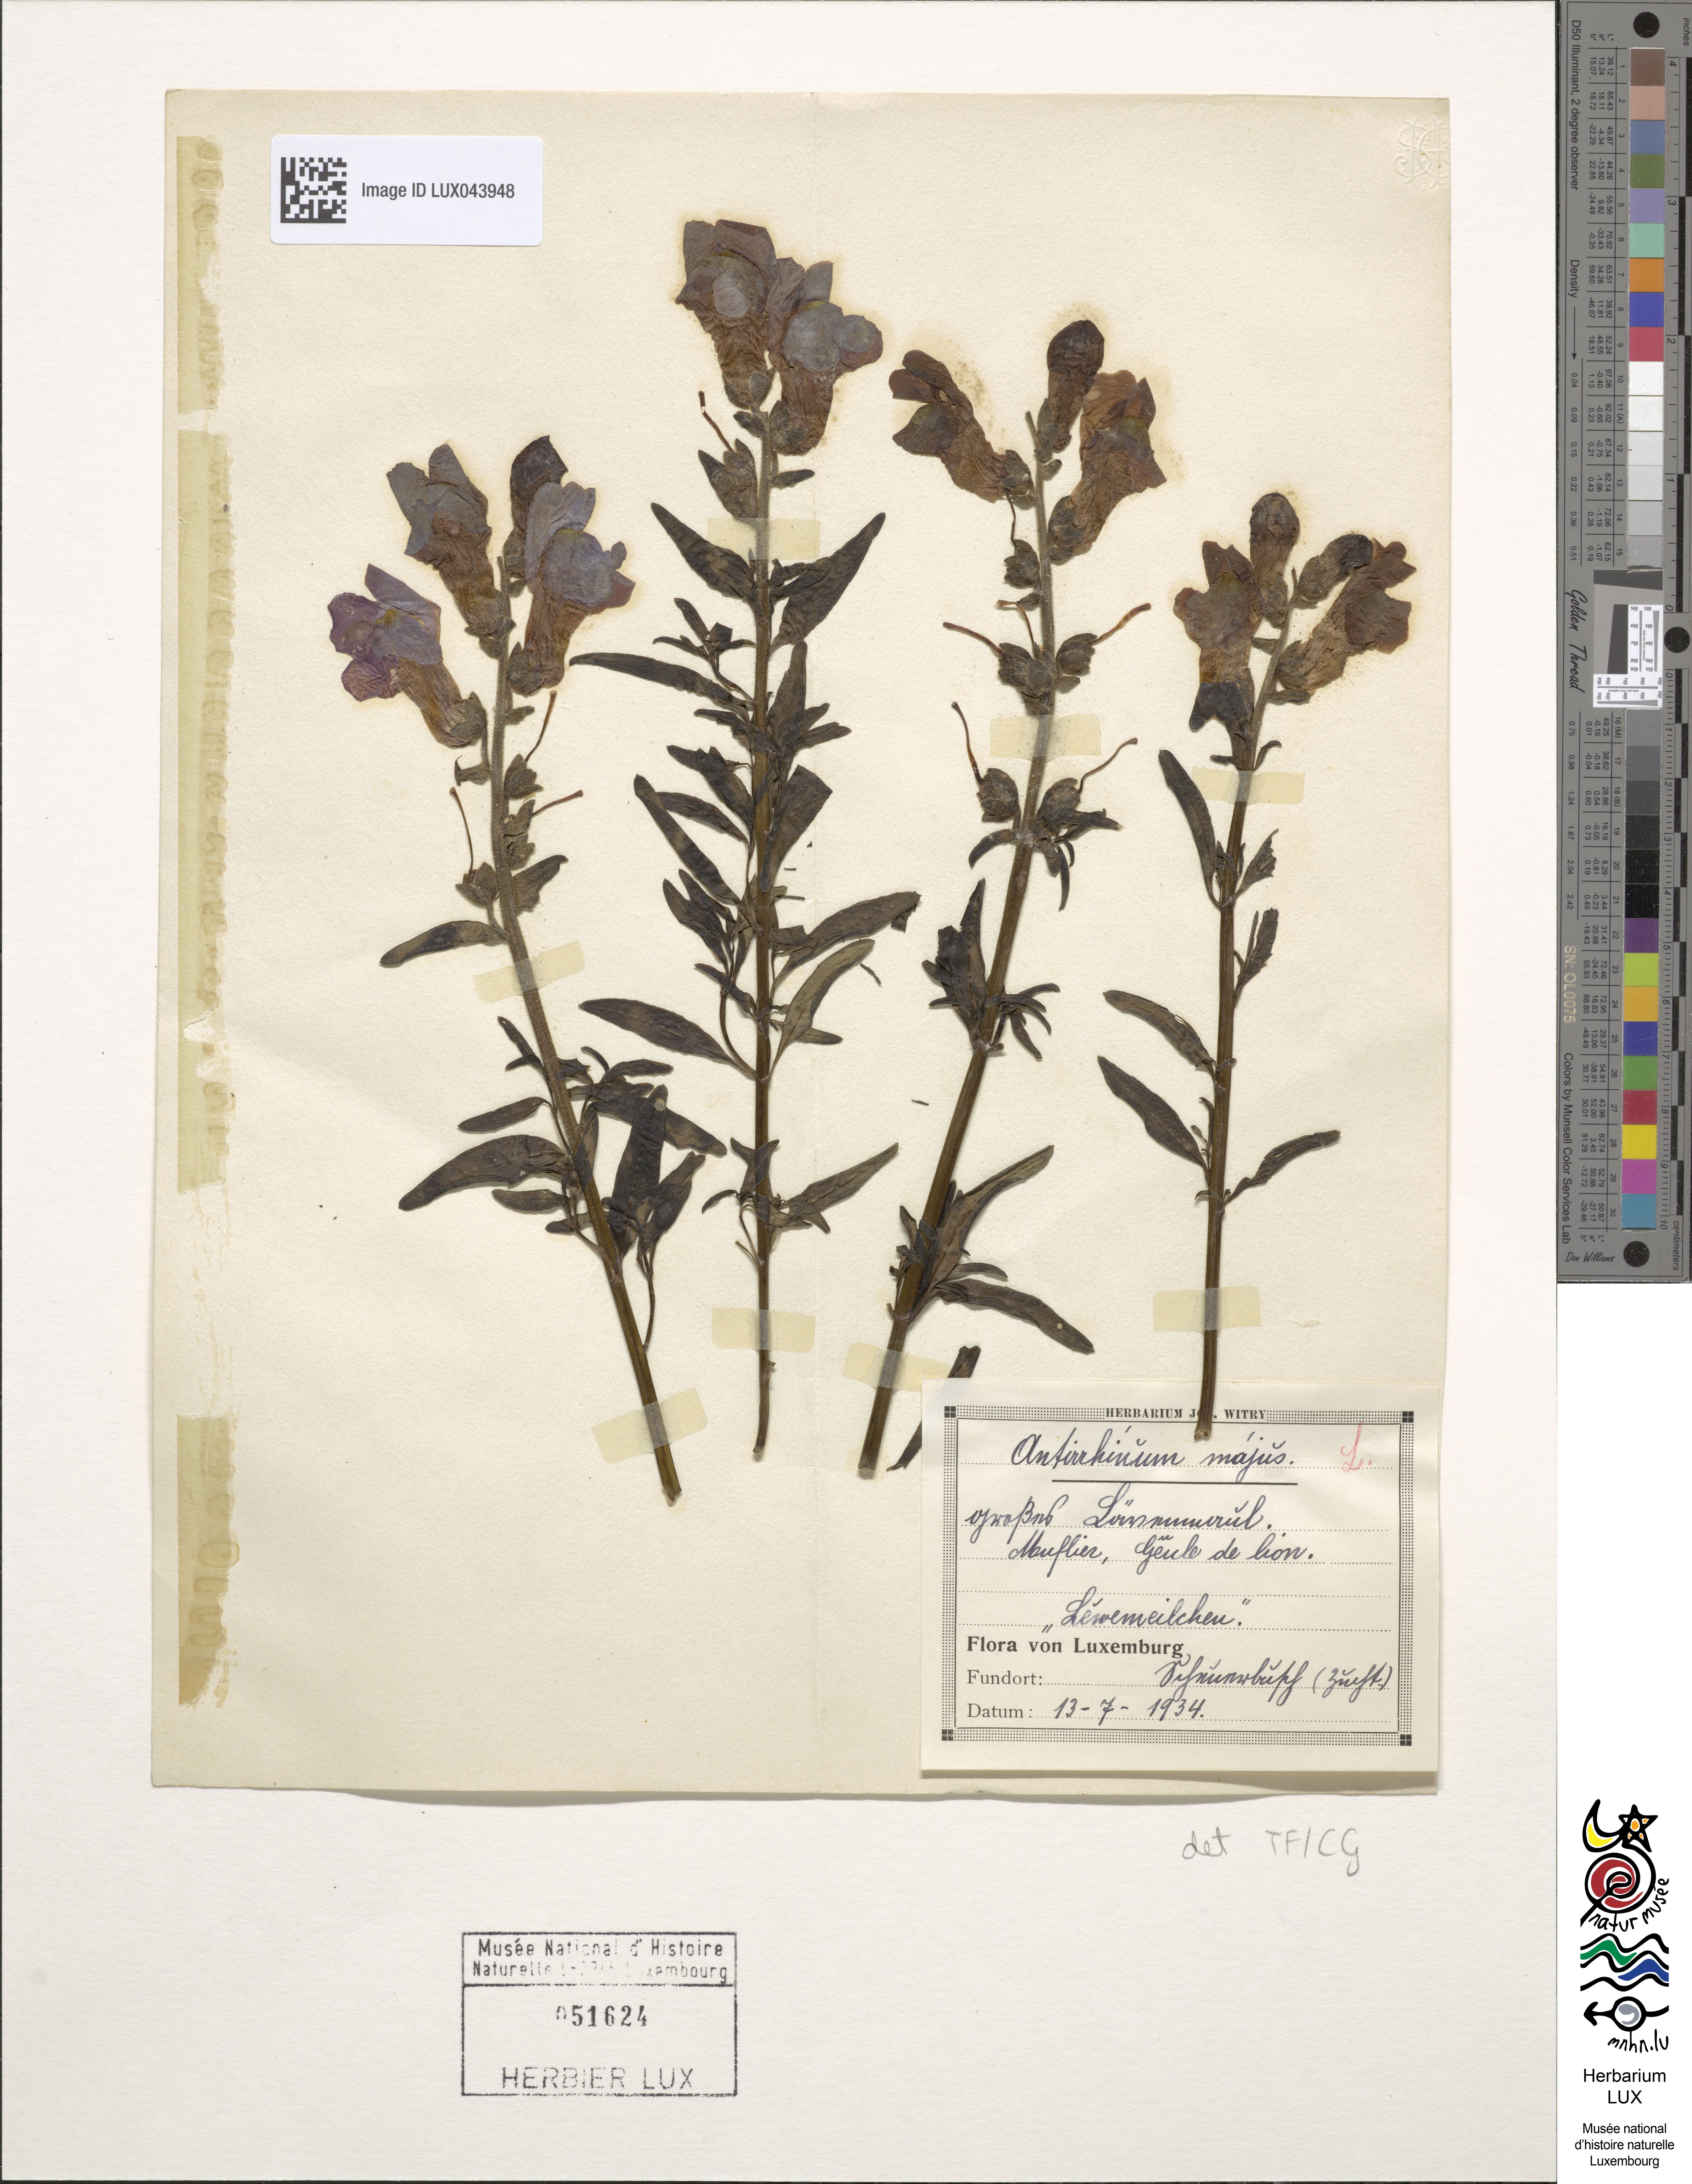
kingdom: Plantae
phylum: Tracheophyta
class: Magnoliopsida
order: Lamiales
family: Plantaginaceae
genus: Antirrhinum
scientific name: Antirrhinum majus
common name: Snapdragon
